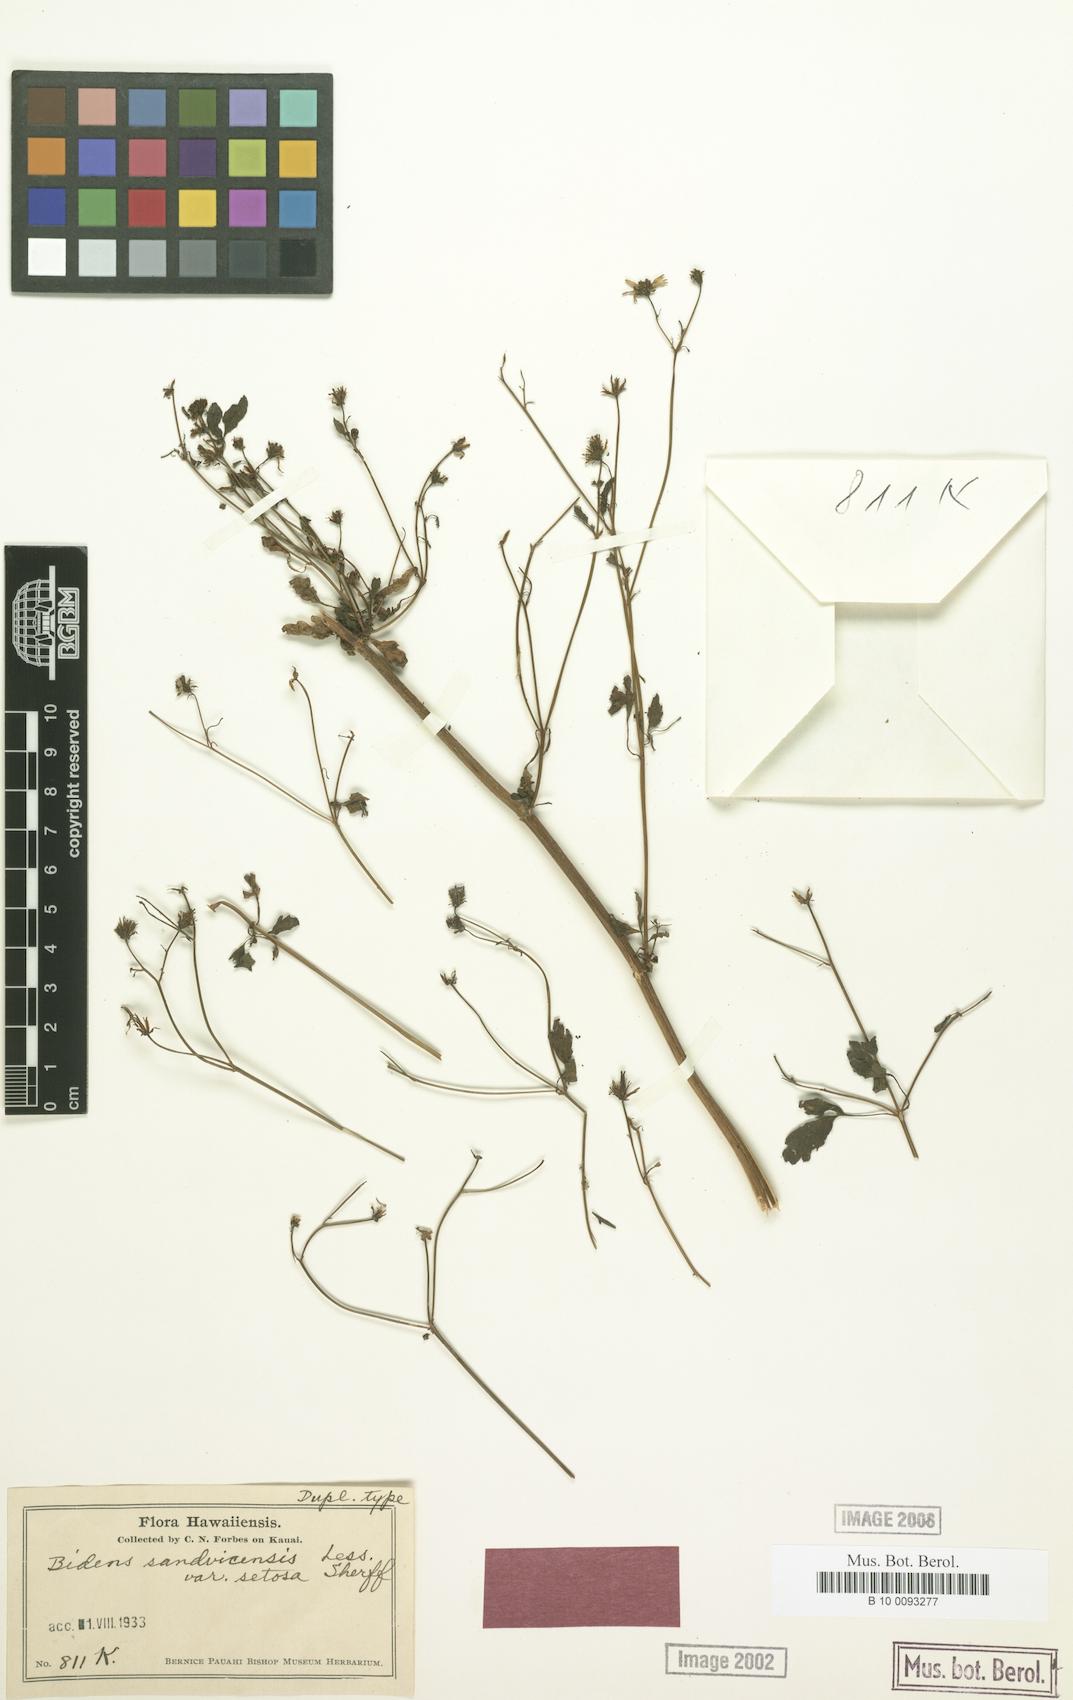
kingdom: Plantae
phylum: Tracheophyta
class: Magnoliopsida
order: Asterales
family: Asteraceae
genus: Bidens
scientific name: Bidens sandvicensis
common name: Shrubland beggarticks
